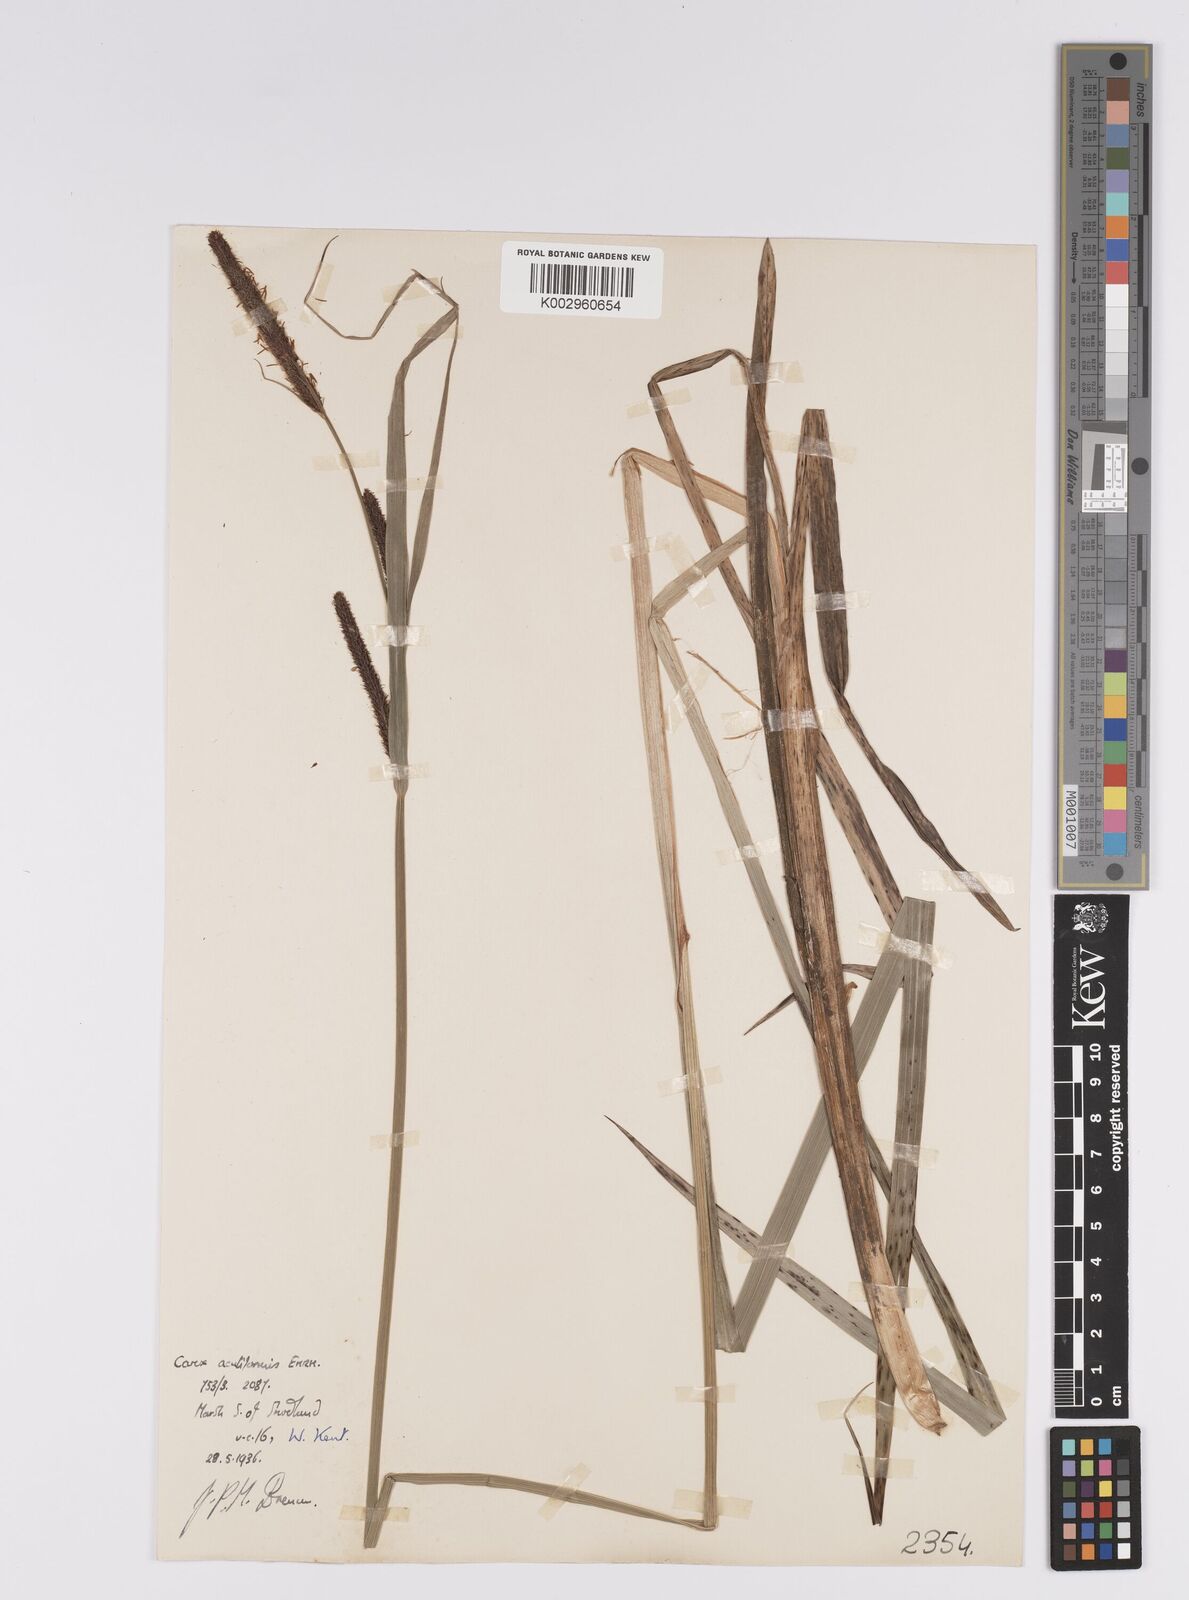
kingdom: Plantae
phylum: Tracheophyta
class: Liliopsida
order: Poales
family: Cyperaceae
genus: Carex
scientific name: Carex acutiformis
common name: Lesser pond-sedge
